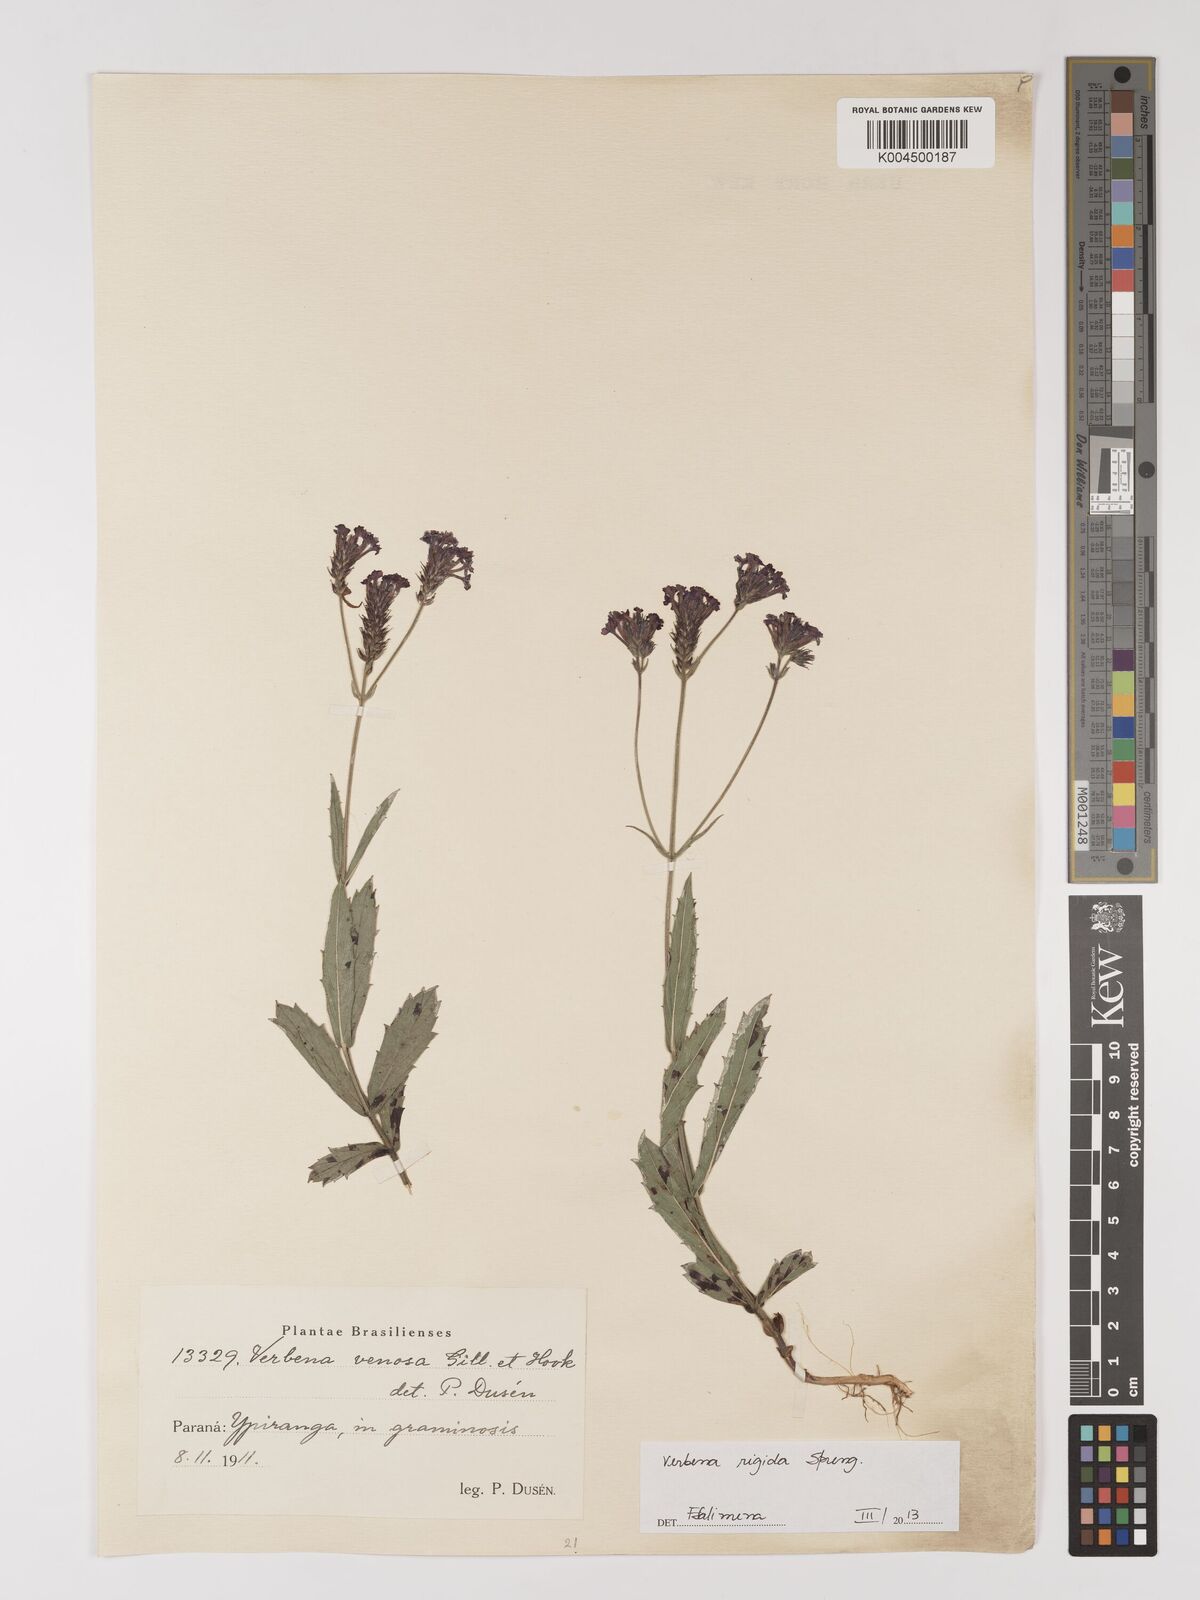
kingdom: Plantae
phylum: Tracheophyta
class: Magnoliopsida
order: Lamiales
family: Verbenaceae
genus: Verbena
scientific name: Verbena rigida
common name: Slender vervain
